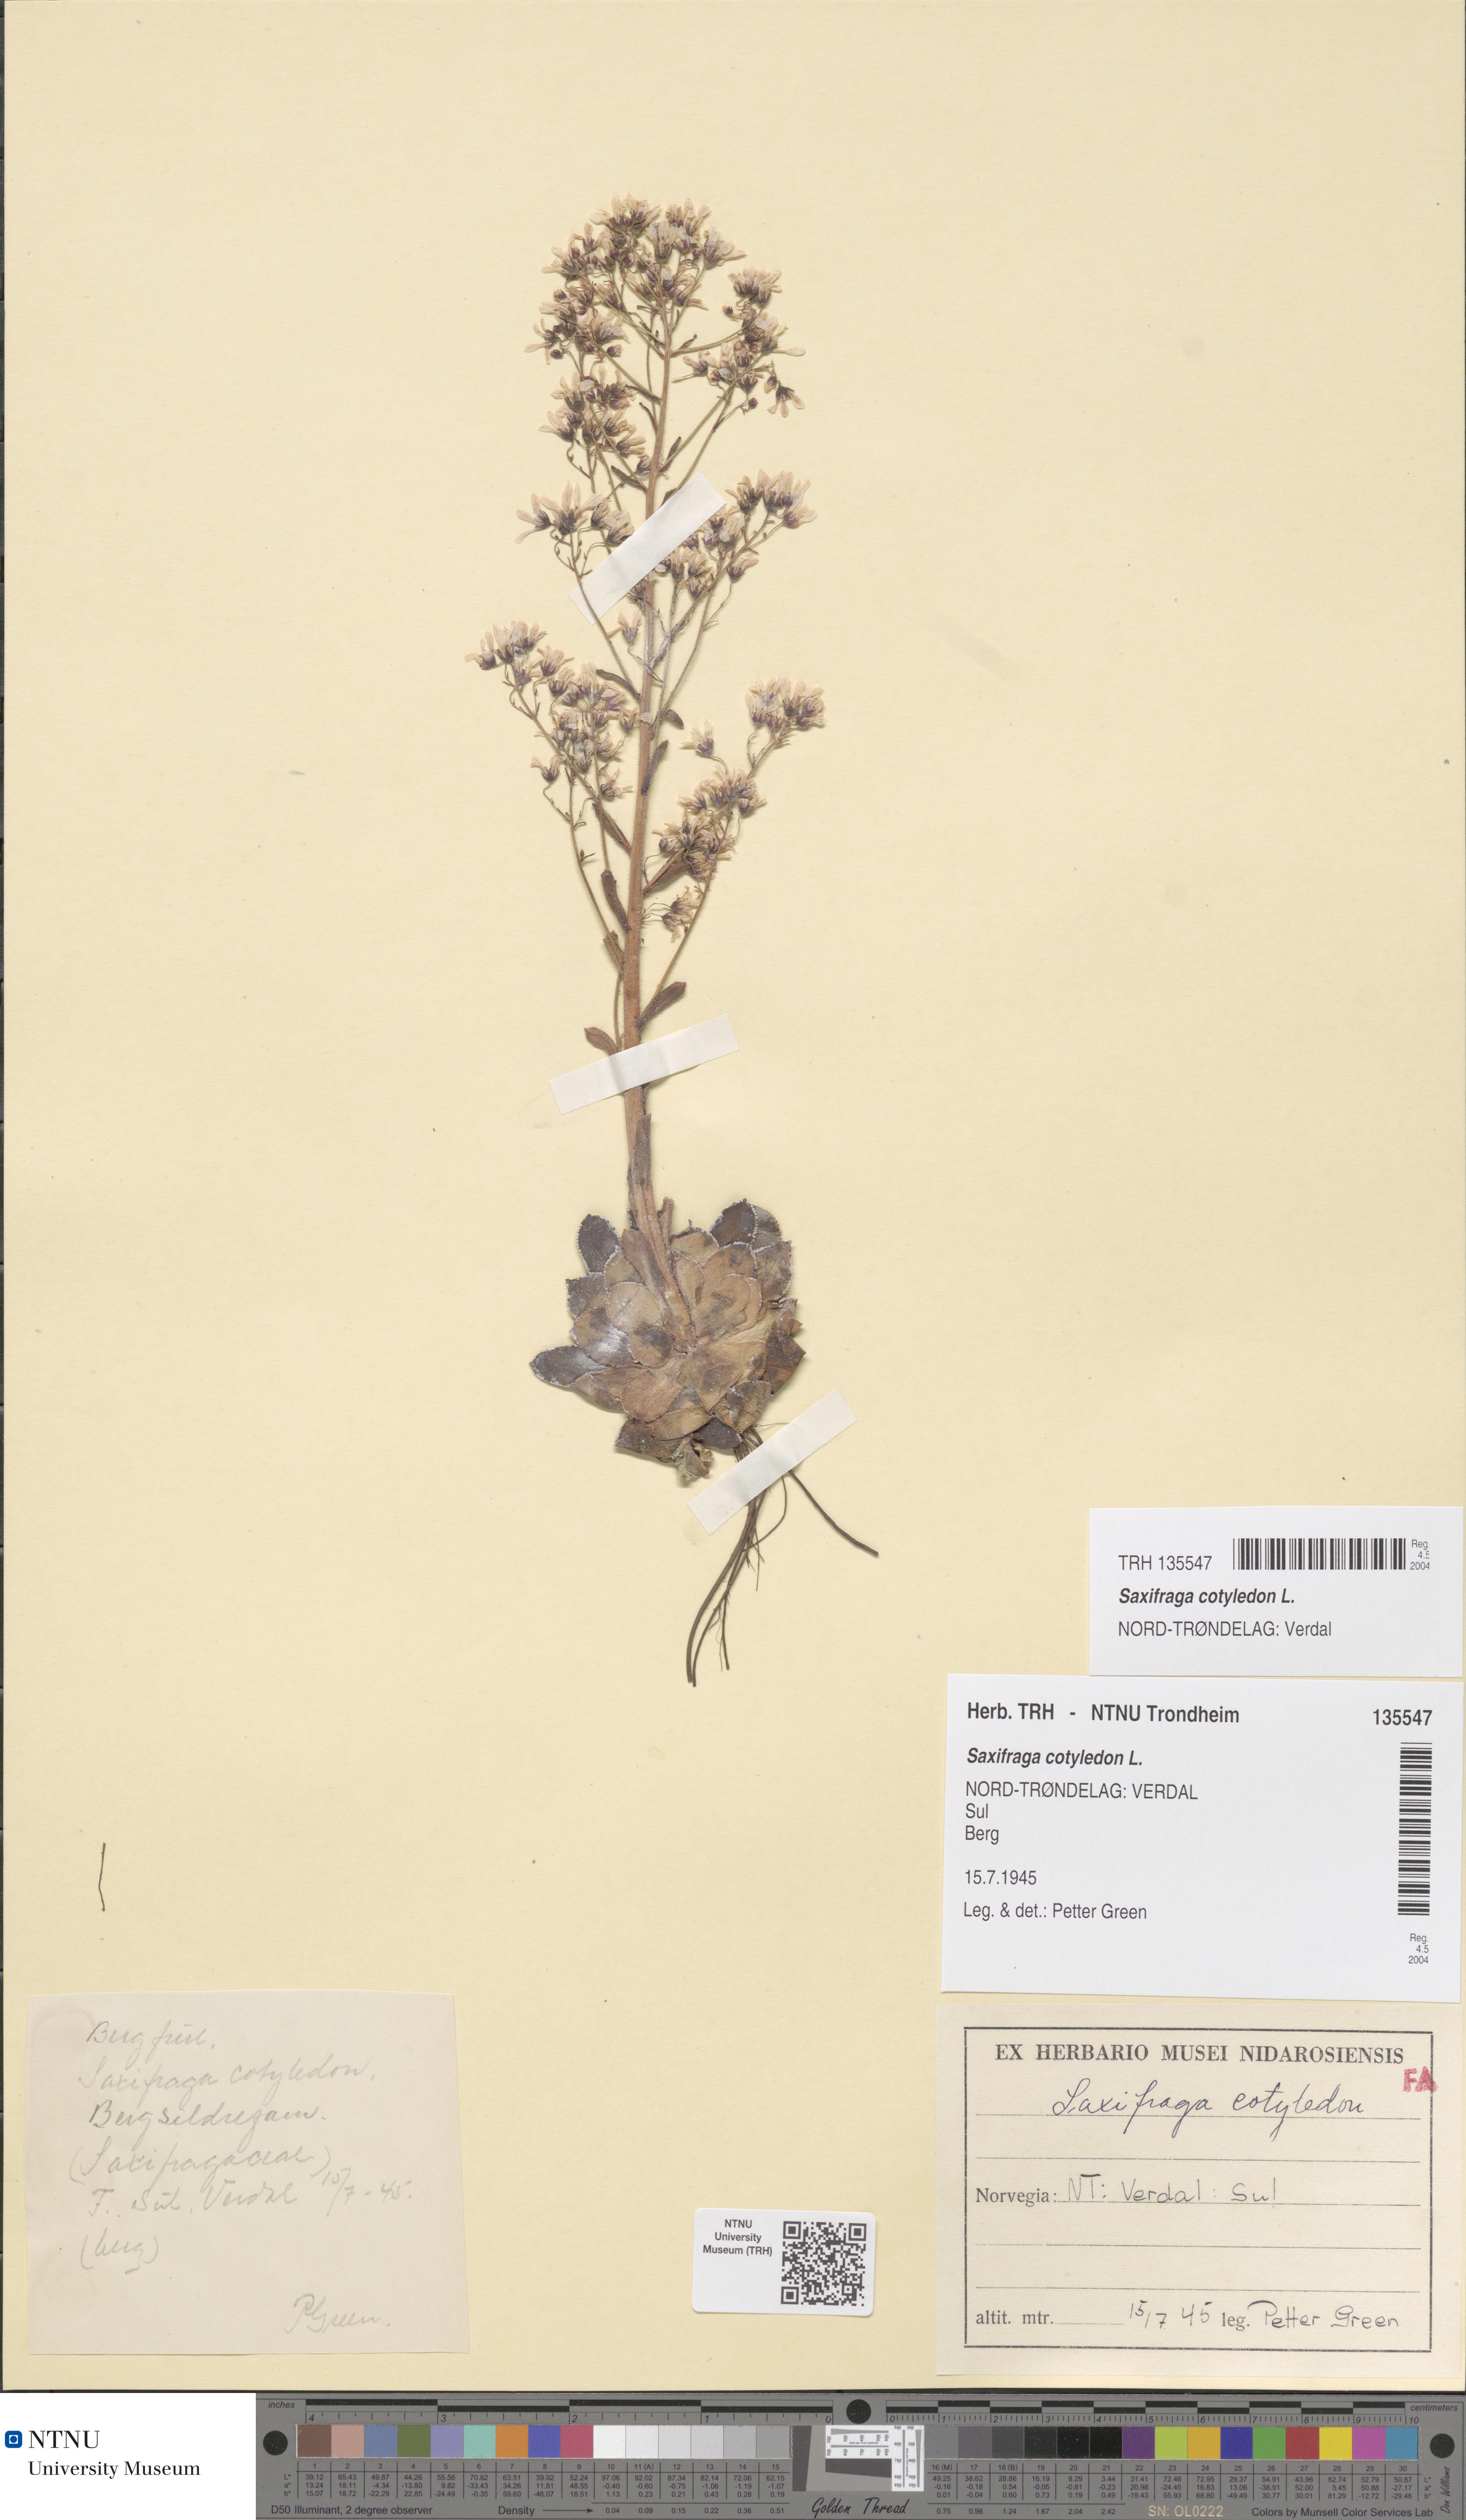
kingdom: Plantae
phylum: Tracheophyta
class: Magnoliopsida
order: Saxifragales
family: Saxifragaceae
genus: Saxifraga
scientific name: Saxifraga cotyledon
